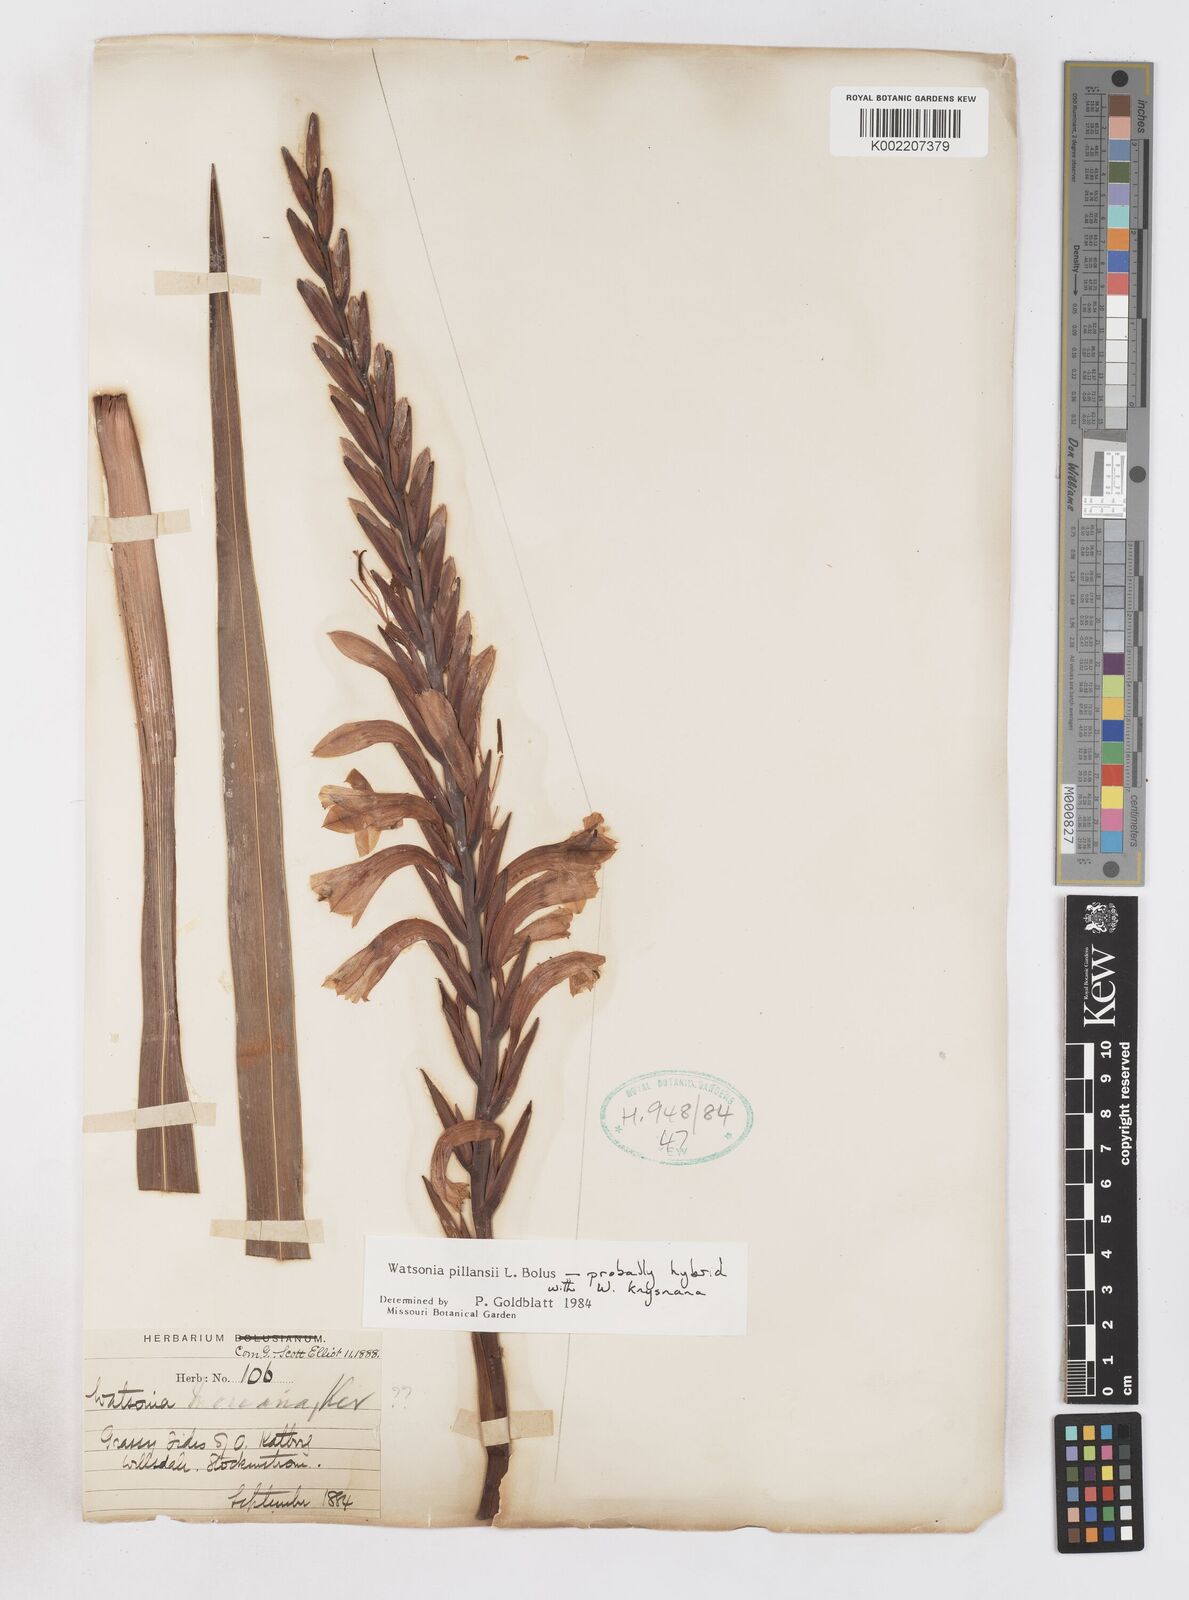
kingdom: Plantae
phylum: Tracheophyta
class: Liliopsida
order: Asparagales
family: Iridaceae
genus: Watsonia
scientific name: Watsonia pillansii
